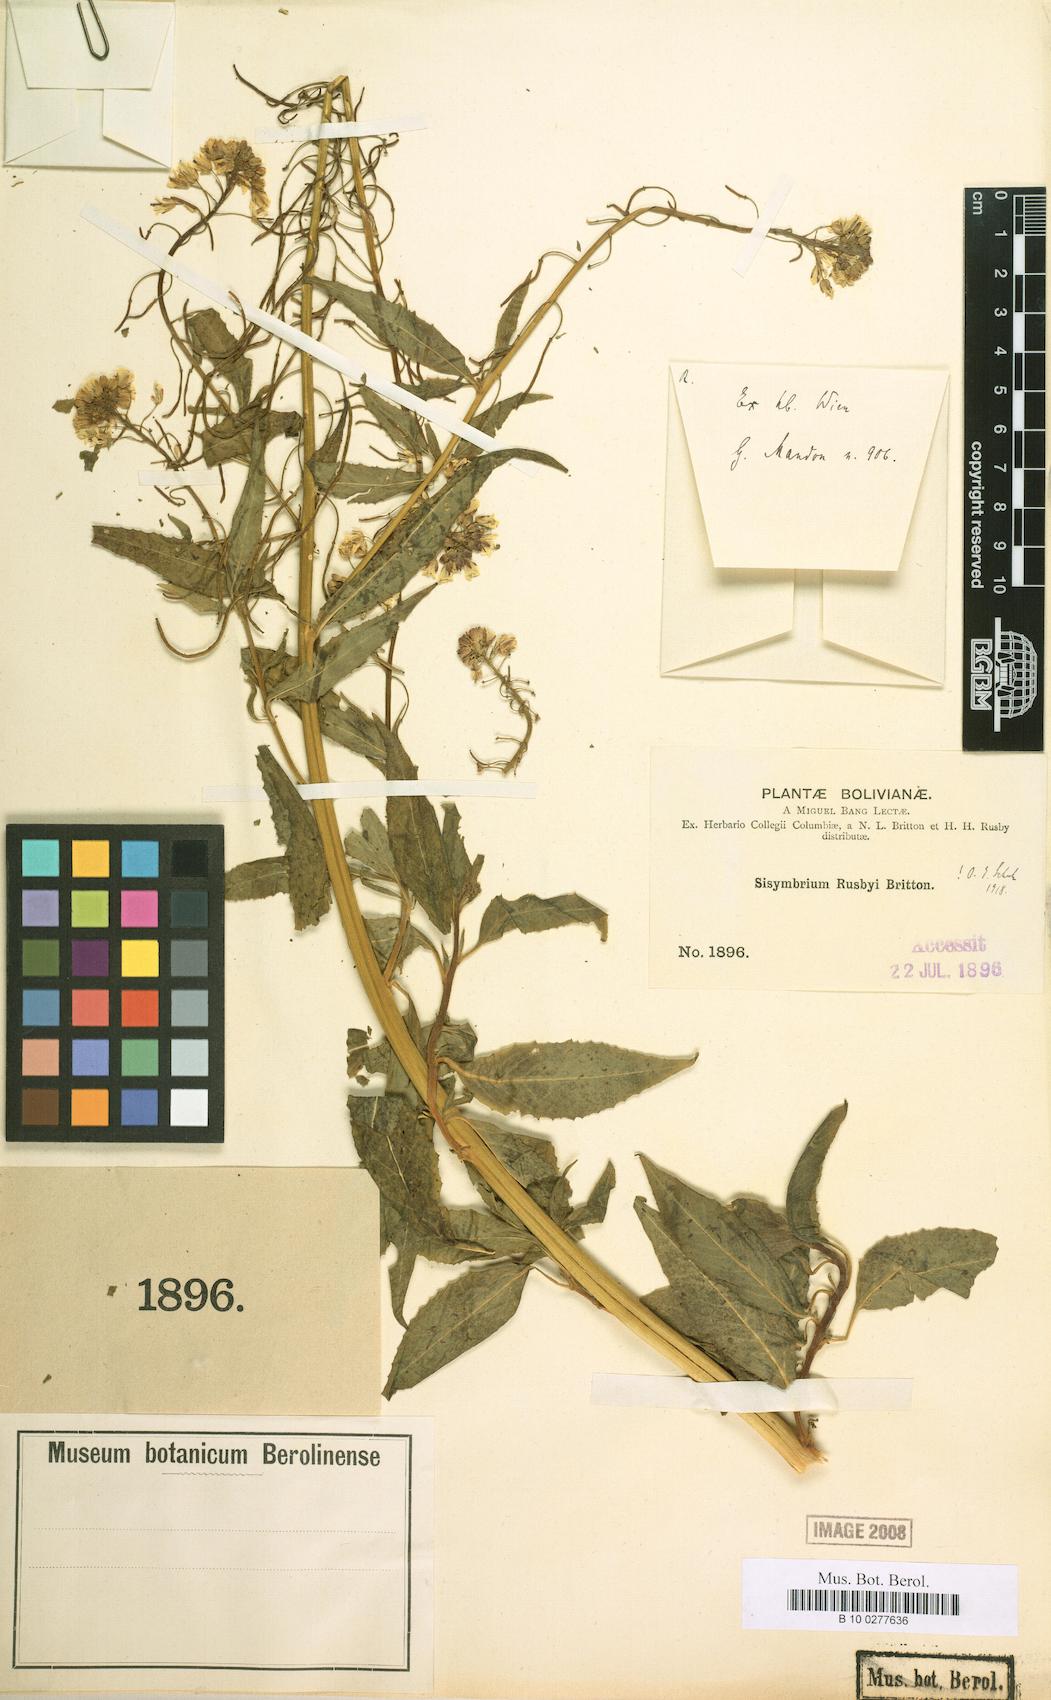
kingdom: Plantae
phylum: Tracheophyta
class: Magnoliopsida
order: Brassicales
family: Brassicaceae
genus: Polypsecadium
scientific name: Polypsecadium rusbyi
